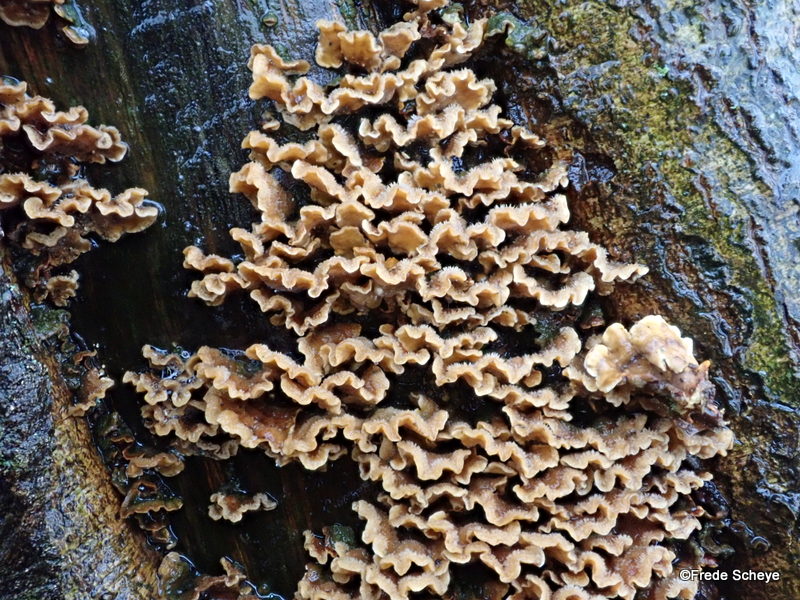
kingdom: Fungi
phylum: Basidiomycota
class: Agaricomycetes
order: Russulales
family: Stereaceae
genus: Stereum
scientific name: Stereum hirsutum
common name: håret lædersvamp
